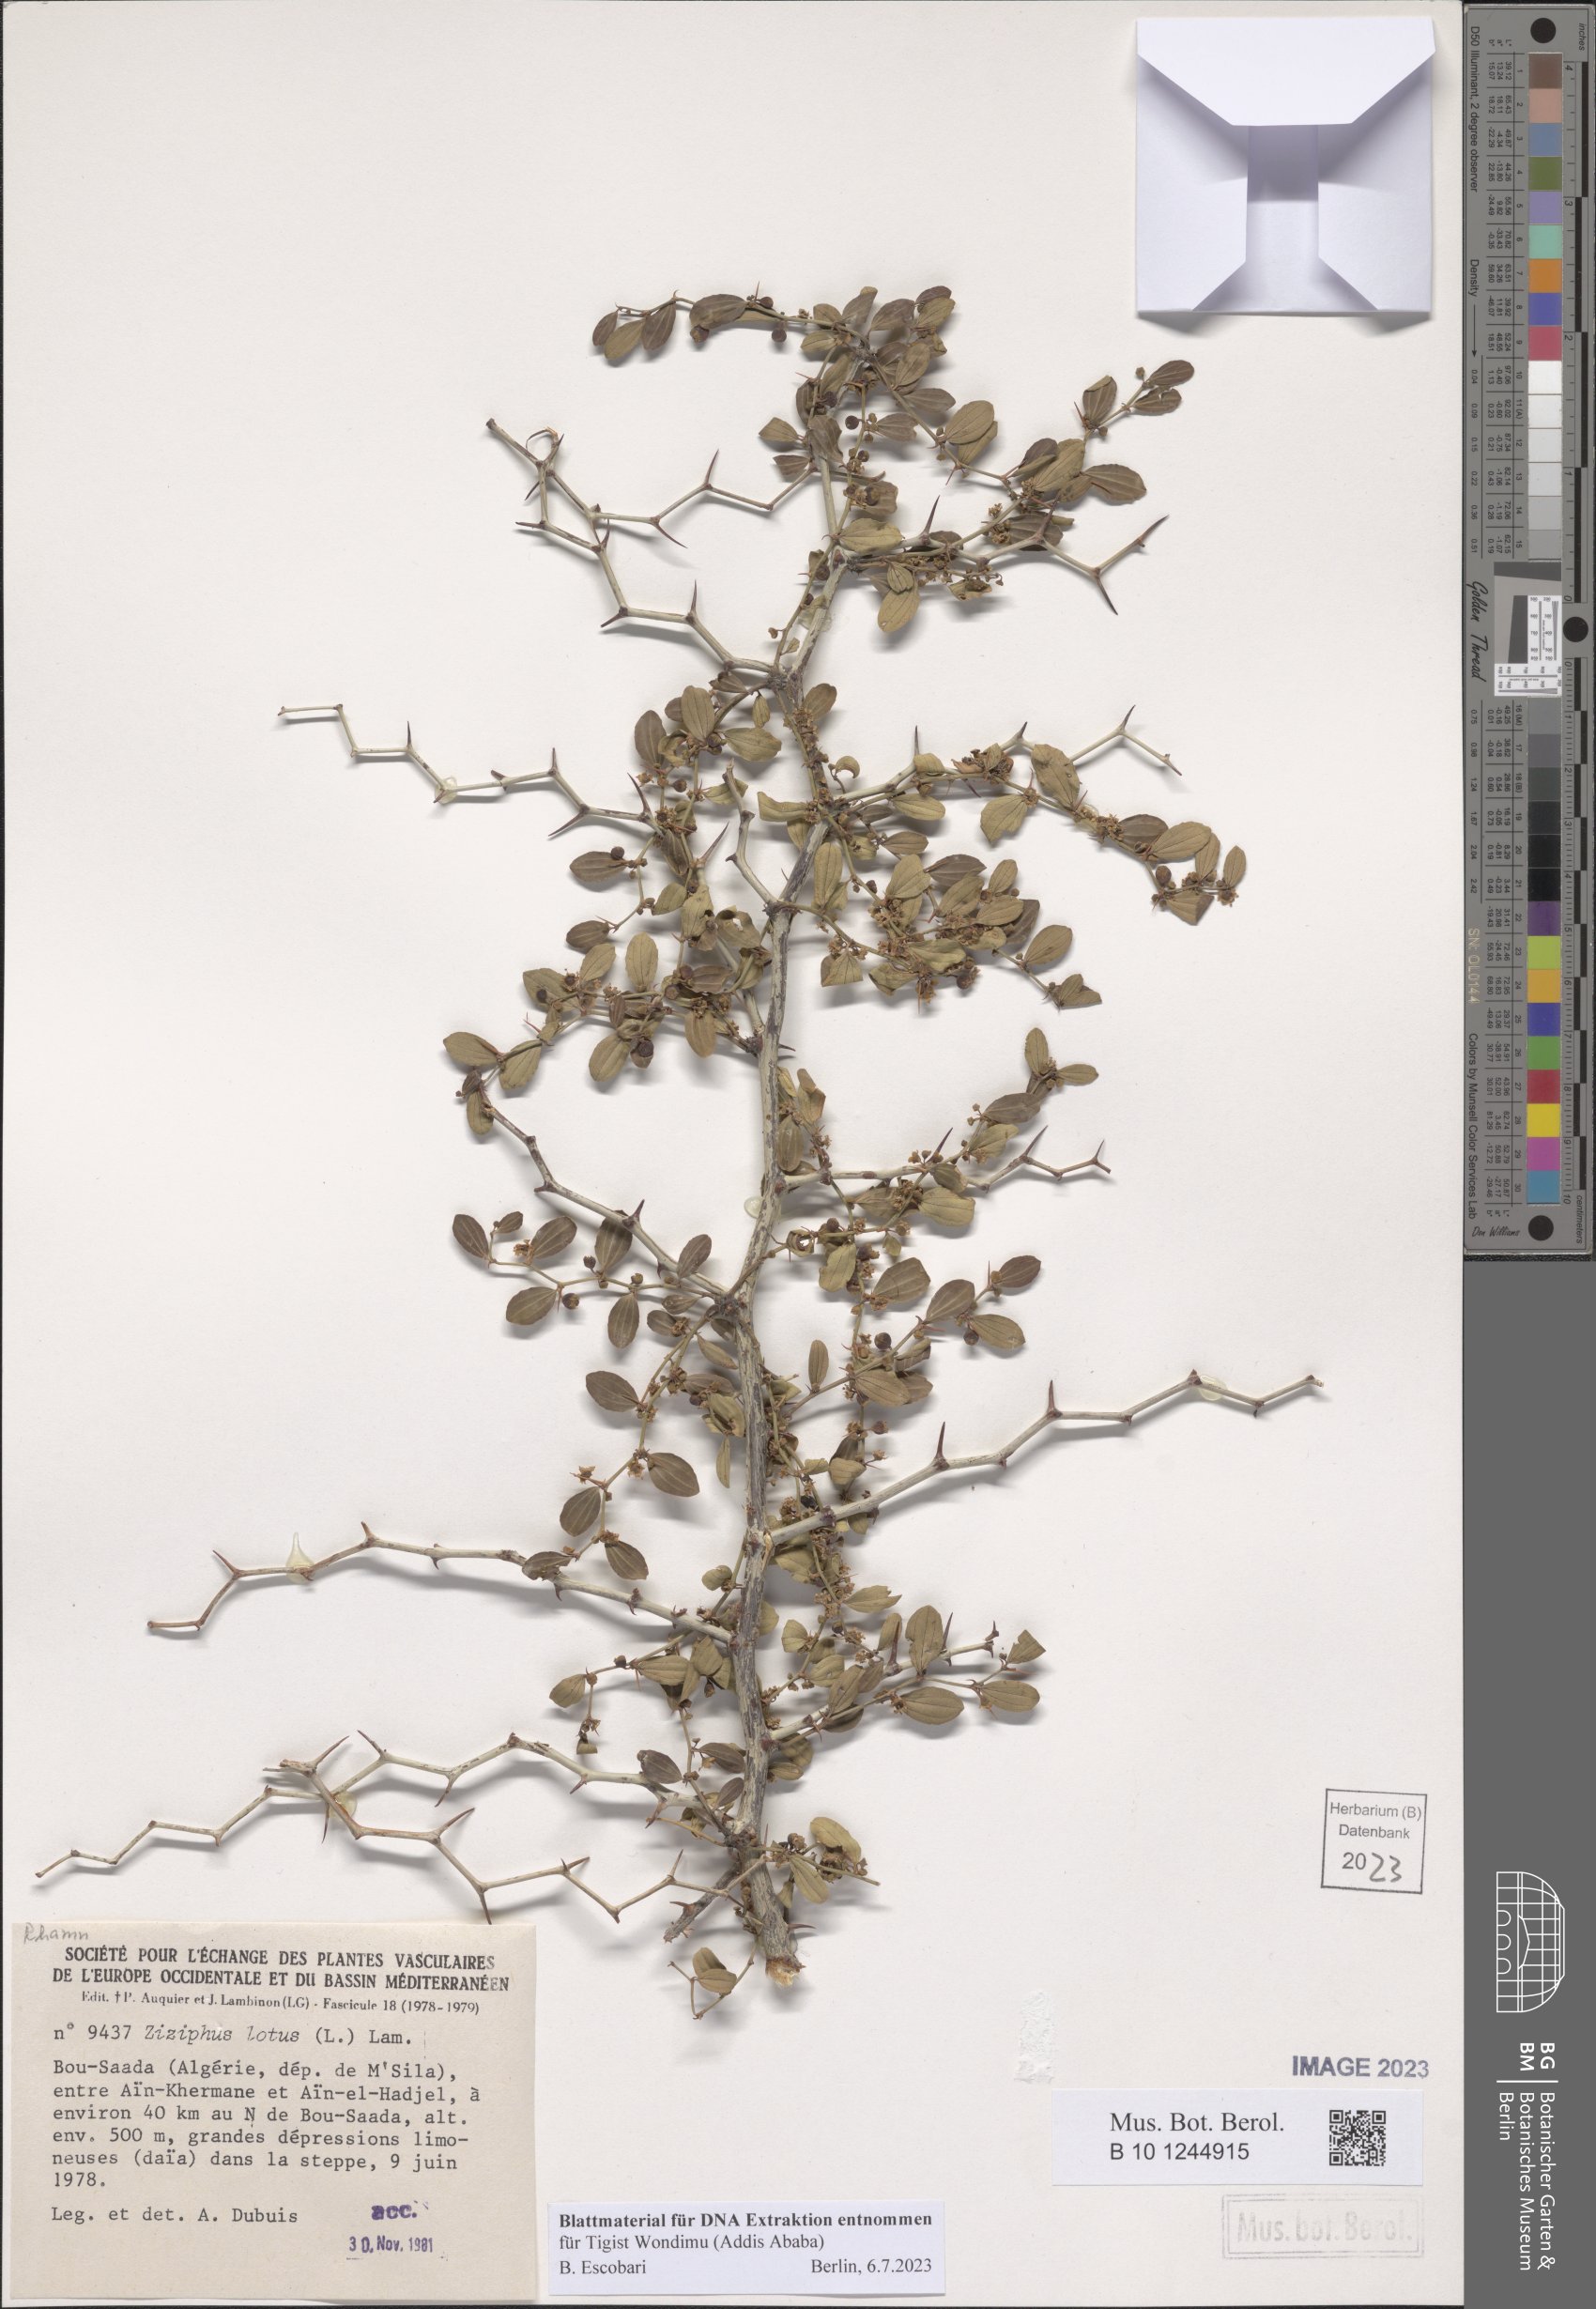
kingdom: Plantae
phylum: Tracheophyta
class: Magnoliopsida
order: Rosales
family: Rhamnaceae
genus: Ziziphus
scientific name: Ziziphus lotus
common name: Lotus
